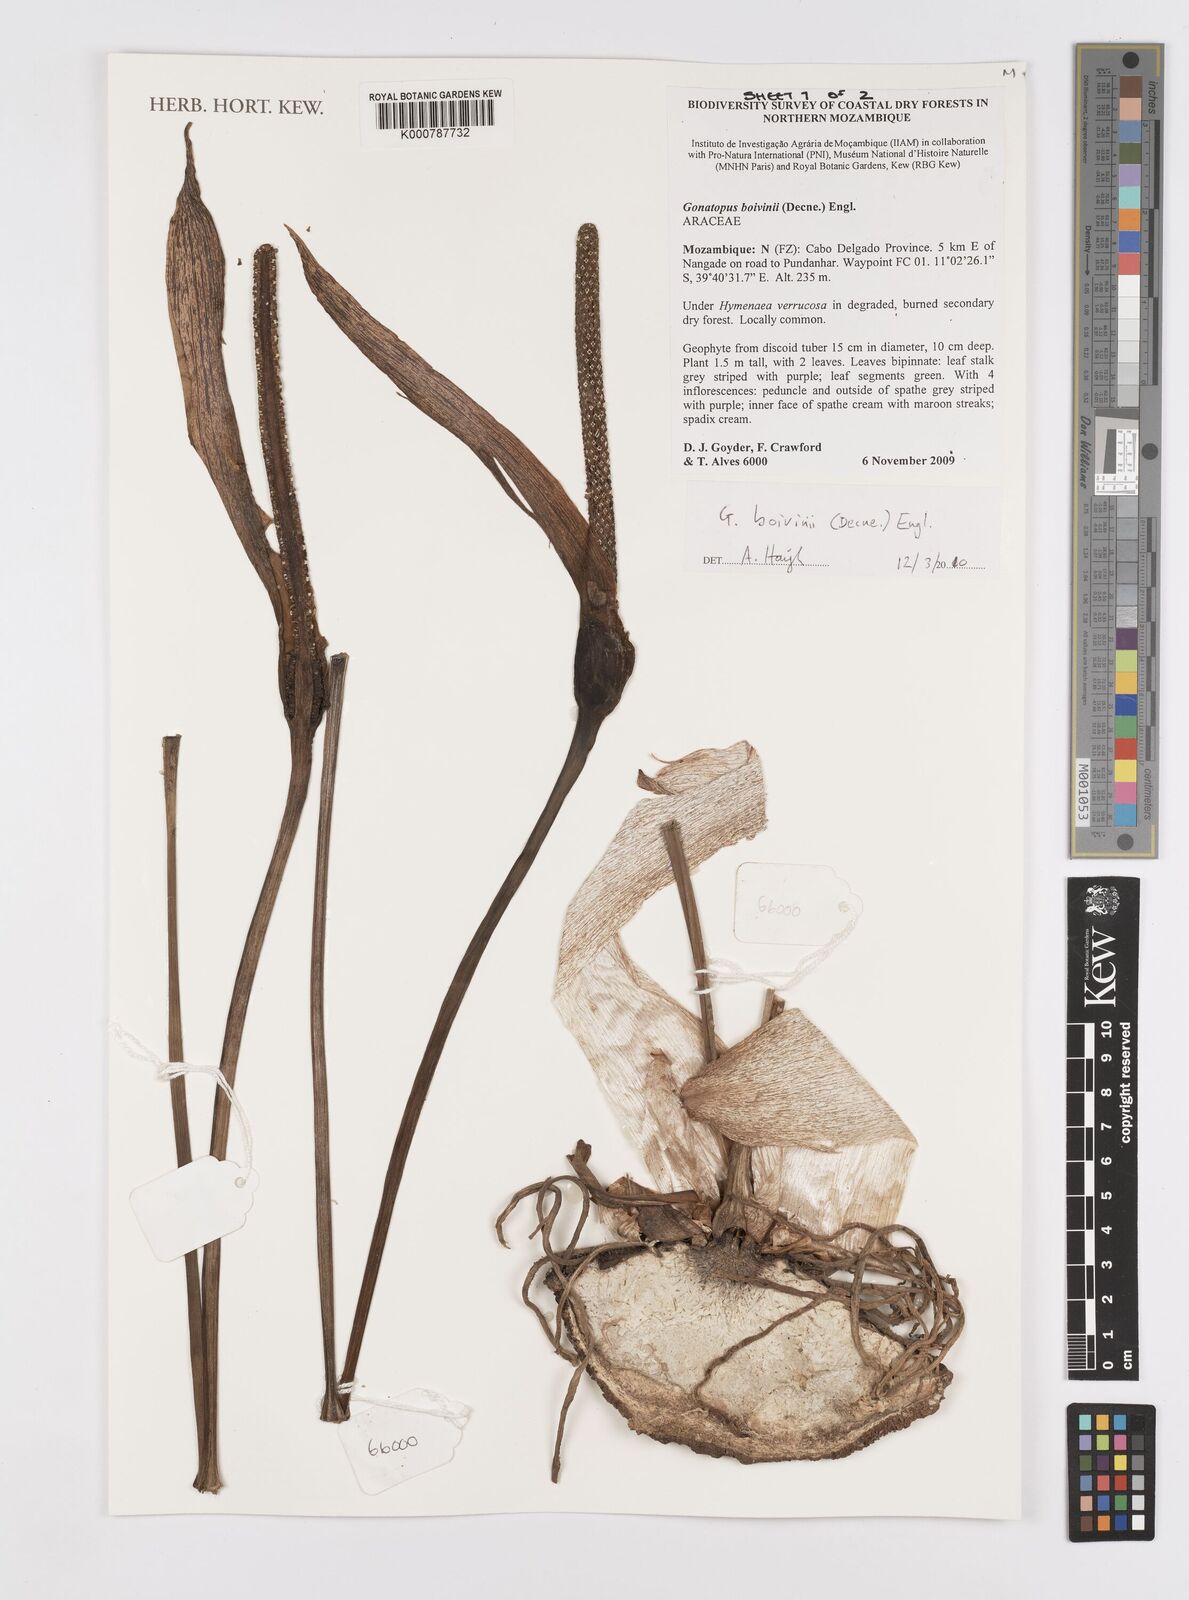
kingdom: Plantae
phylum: Tracheophyta
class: Liliopsida
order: Alismatales
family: Araceae
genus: Gonatopus
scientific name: Gonatopus boivinii
